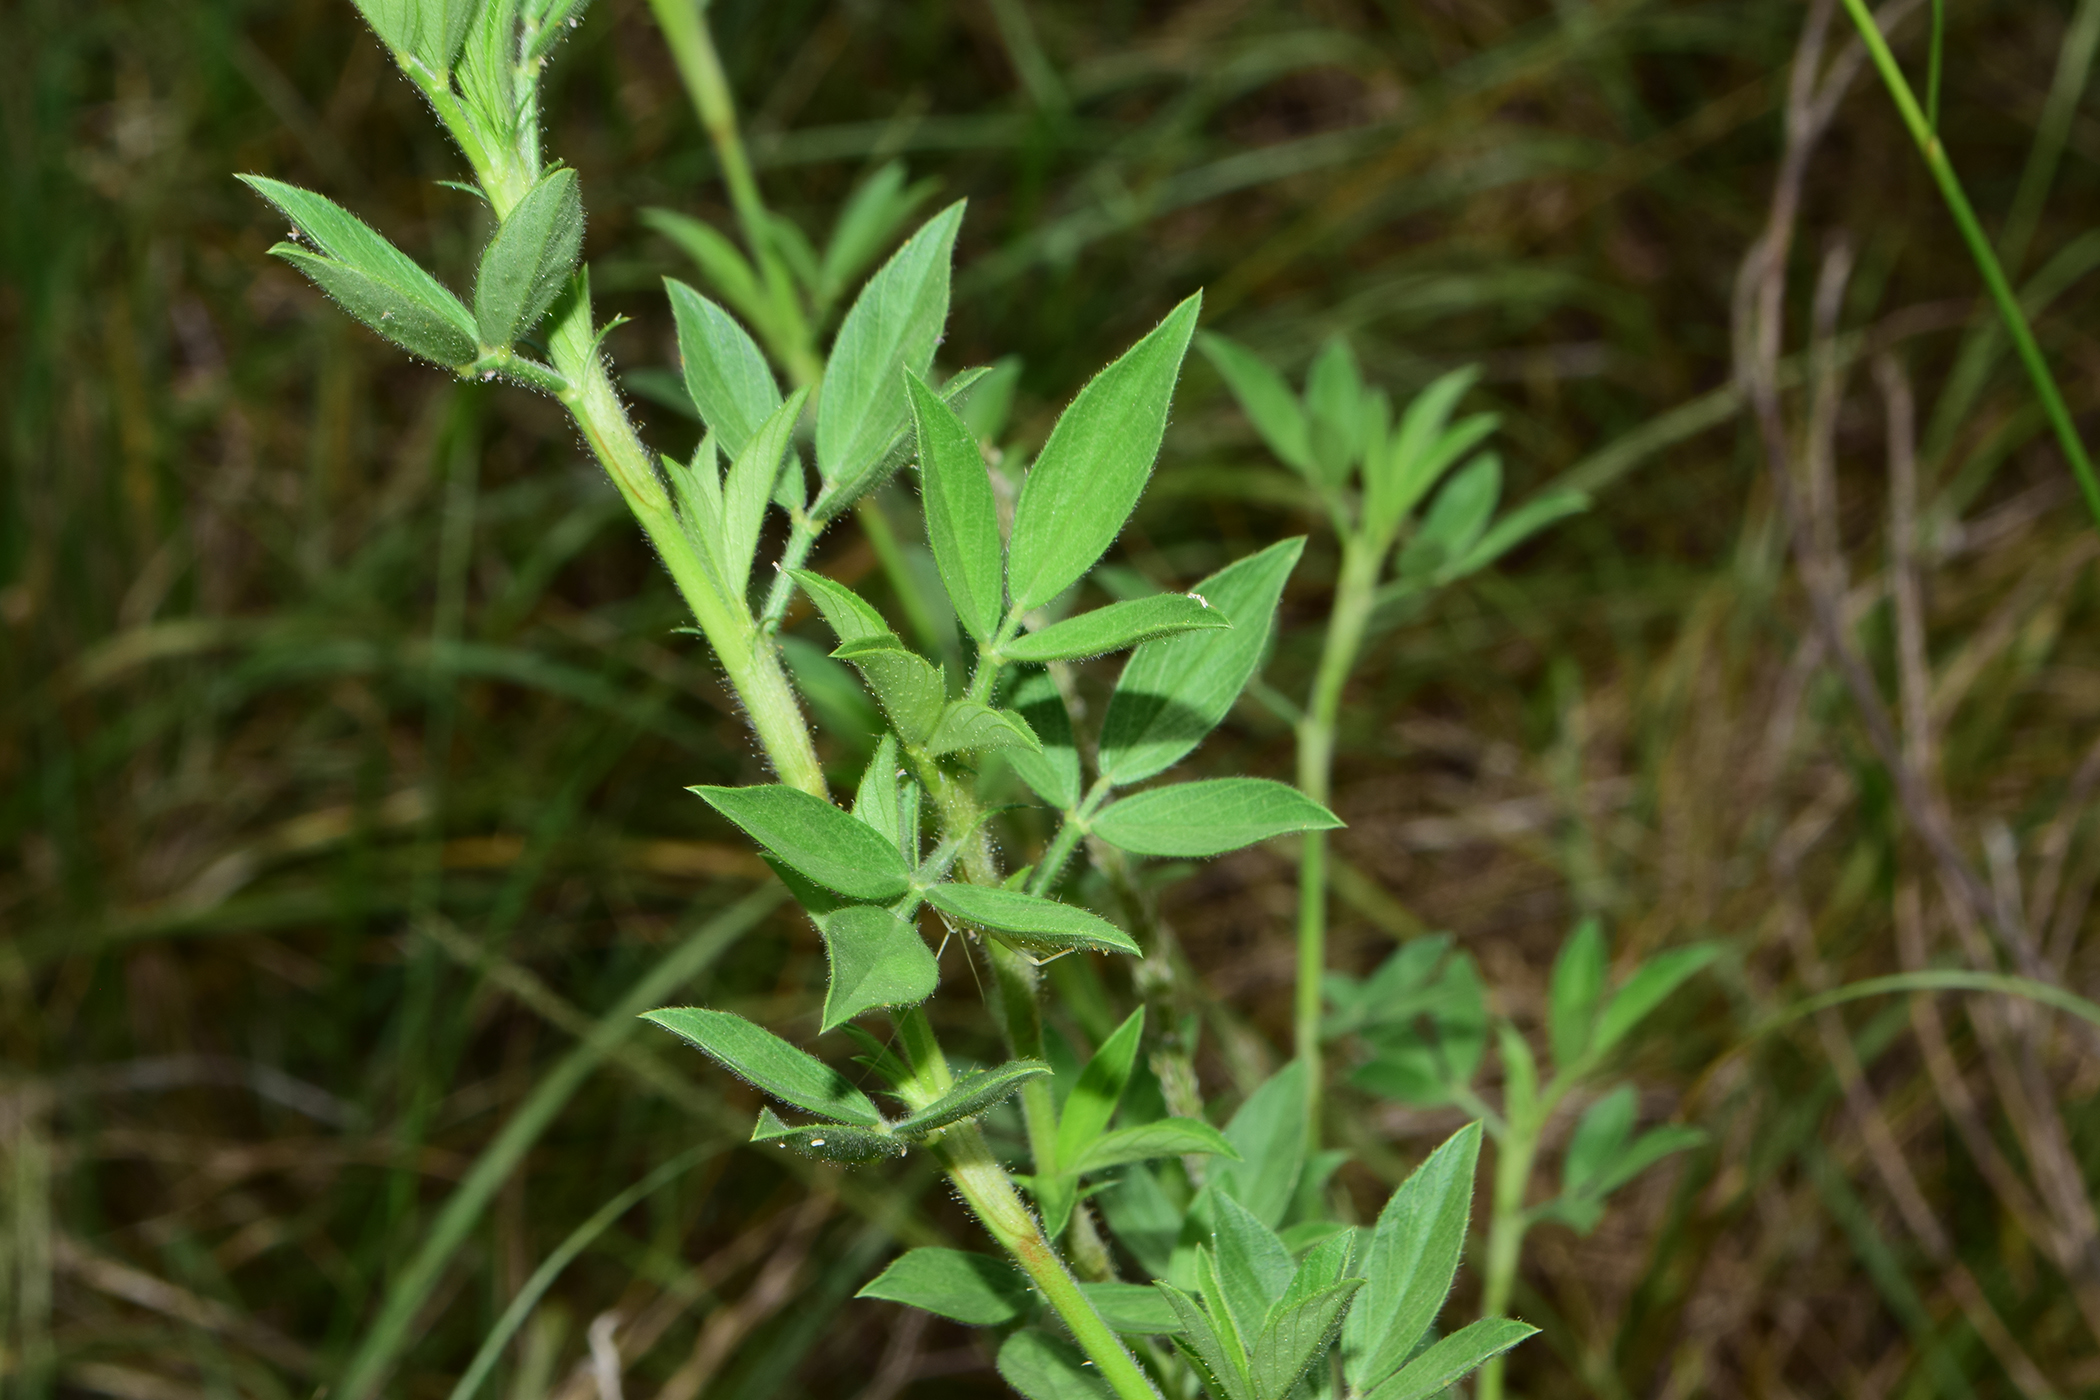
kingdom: Plantae
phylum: Tracheophyta
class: Magnoliopsida
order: Fabales
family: Fabaceae
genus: Stylosanthes
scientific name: Stylosanthes
